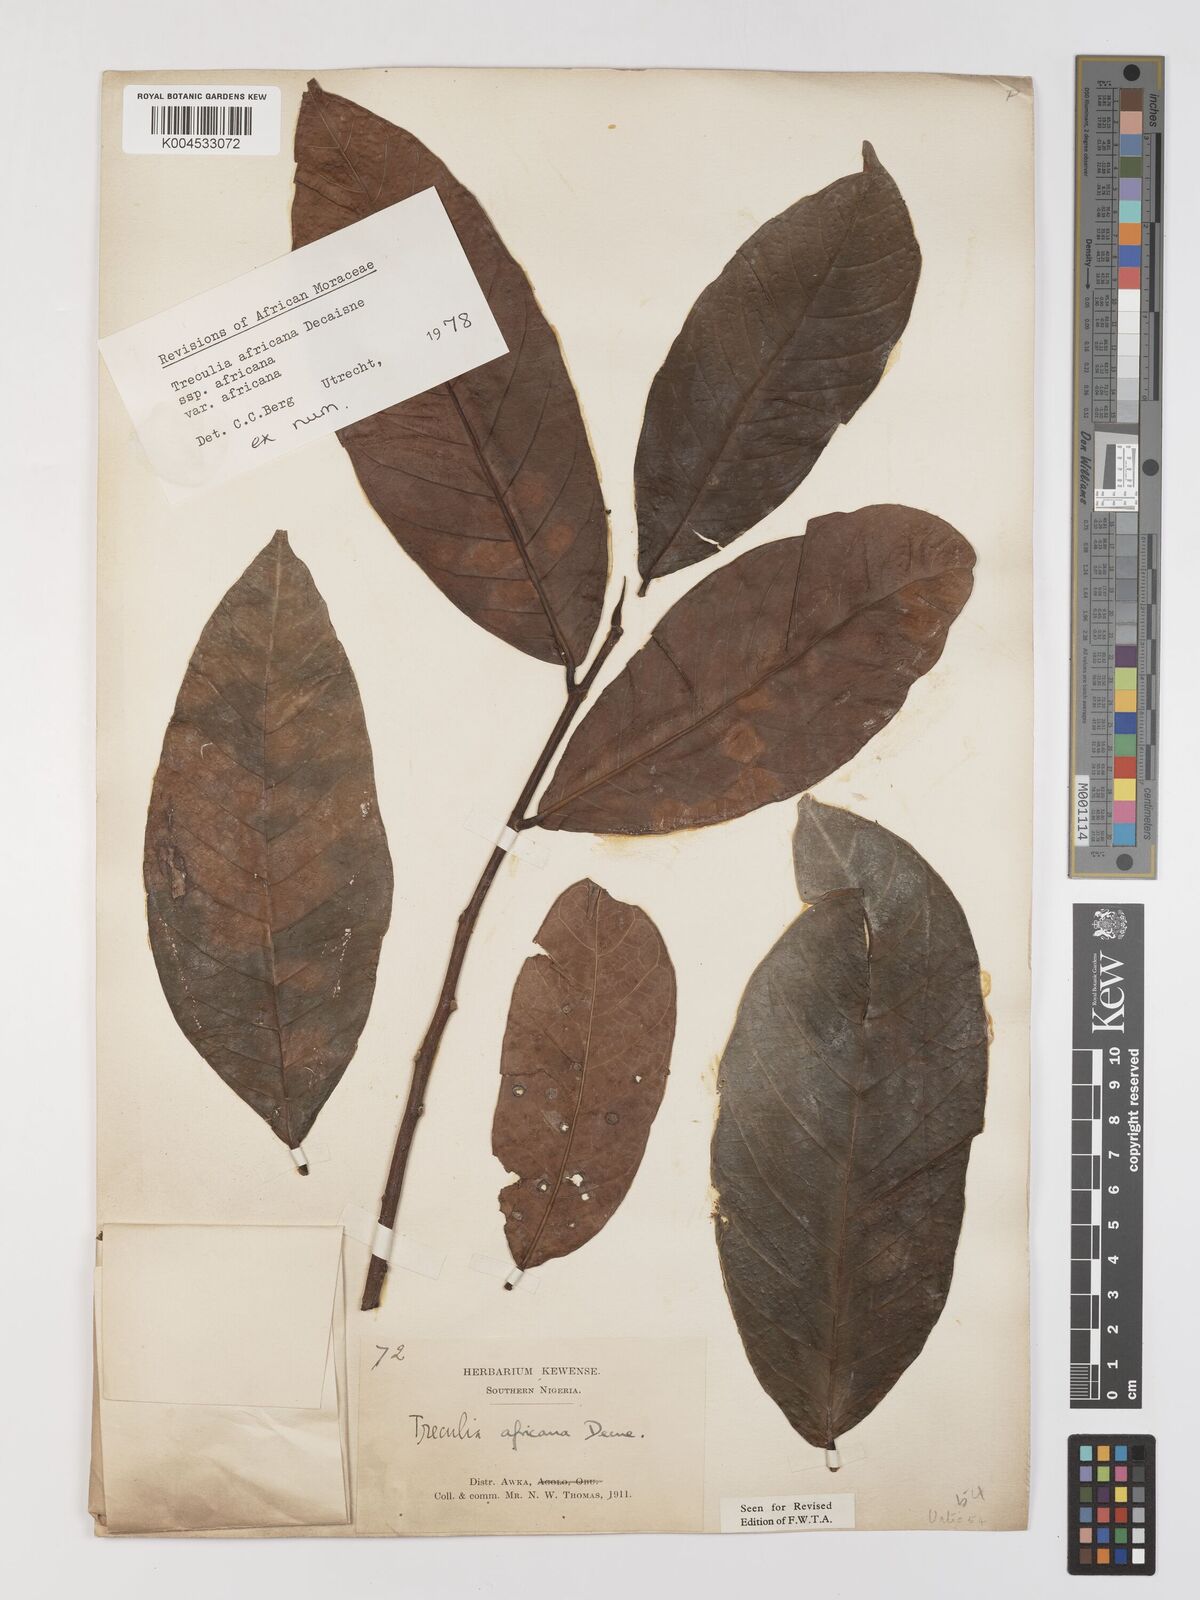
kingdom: Plantae
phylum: Tracheophyta
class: Magnoliopsida
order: Rosales
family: Moraceae
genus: Treculia
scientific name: Treculia africana
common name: African breadfruit
